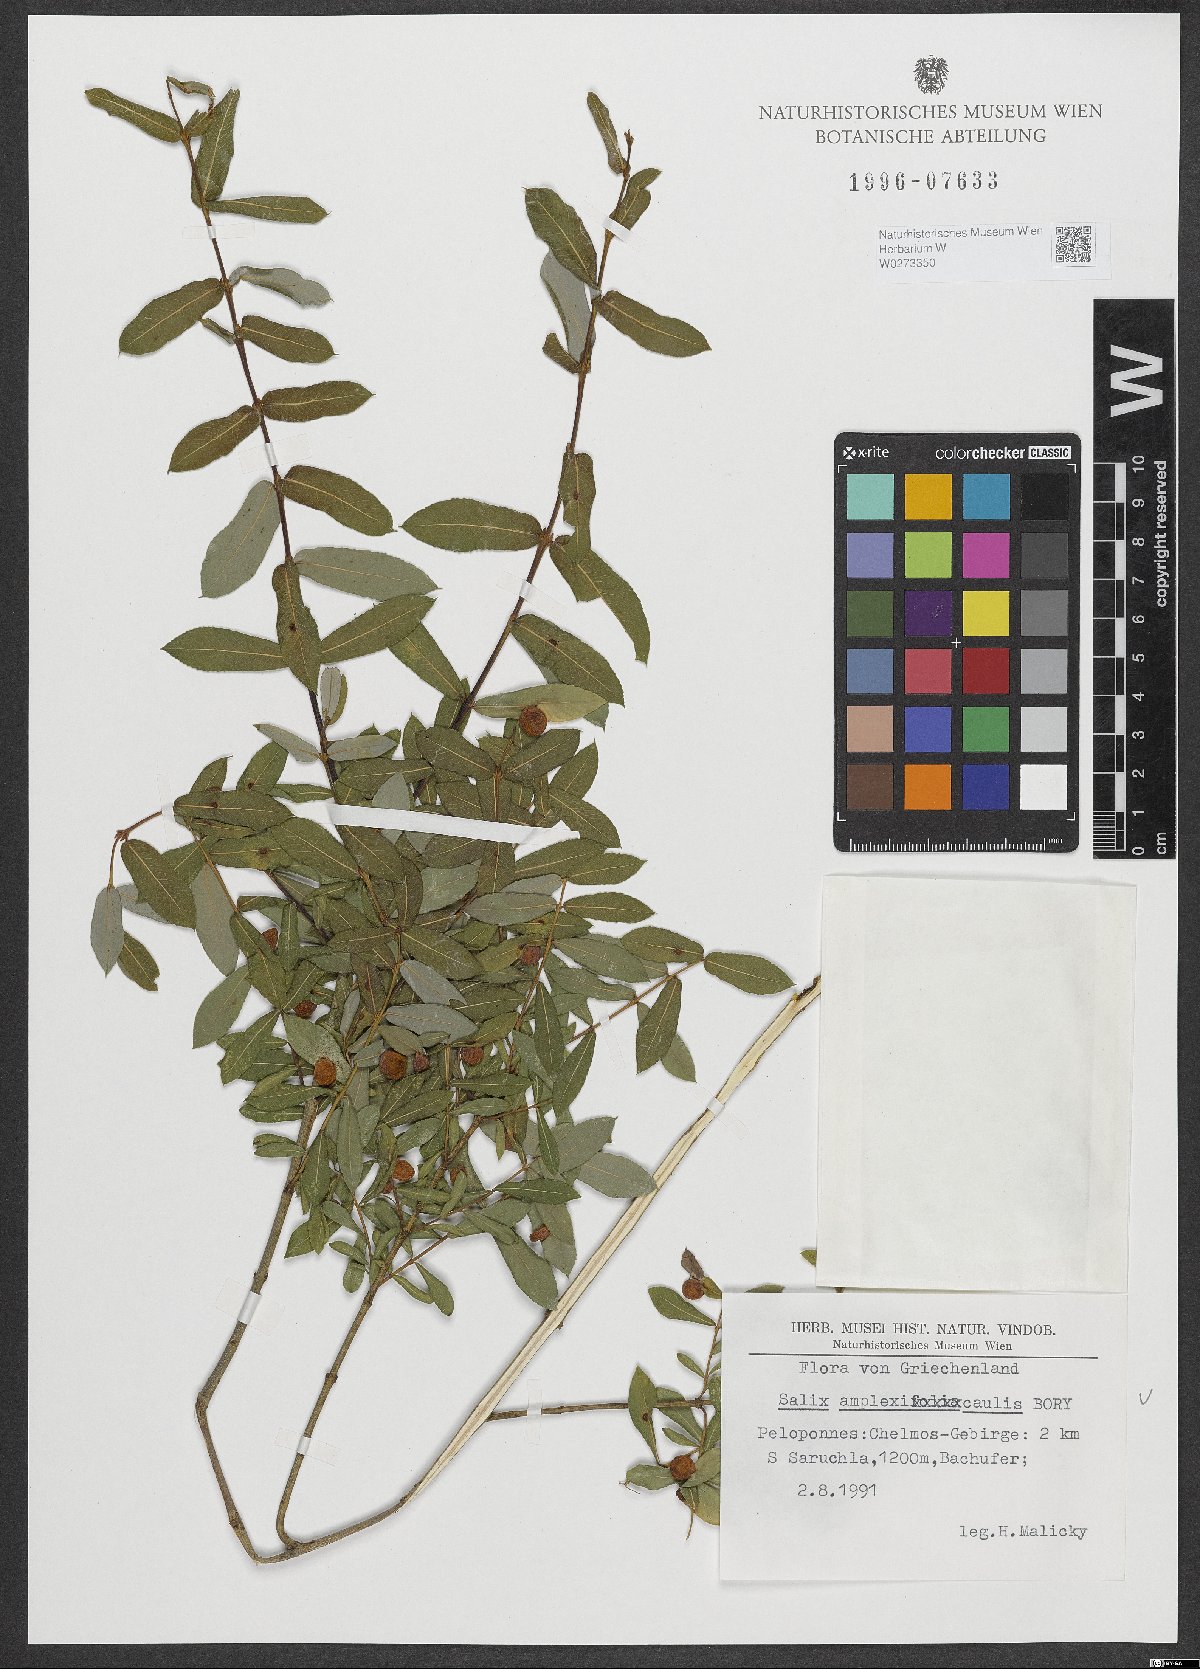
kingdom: Plantae
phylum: Tracheophyta
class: Magnoliopsida
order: Malpighiales
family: Salicaceae
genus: Salix
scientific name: Salix amplexicaulis
